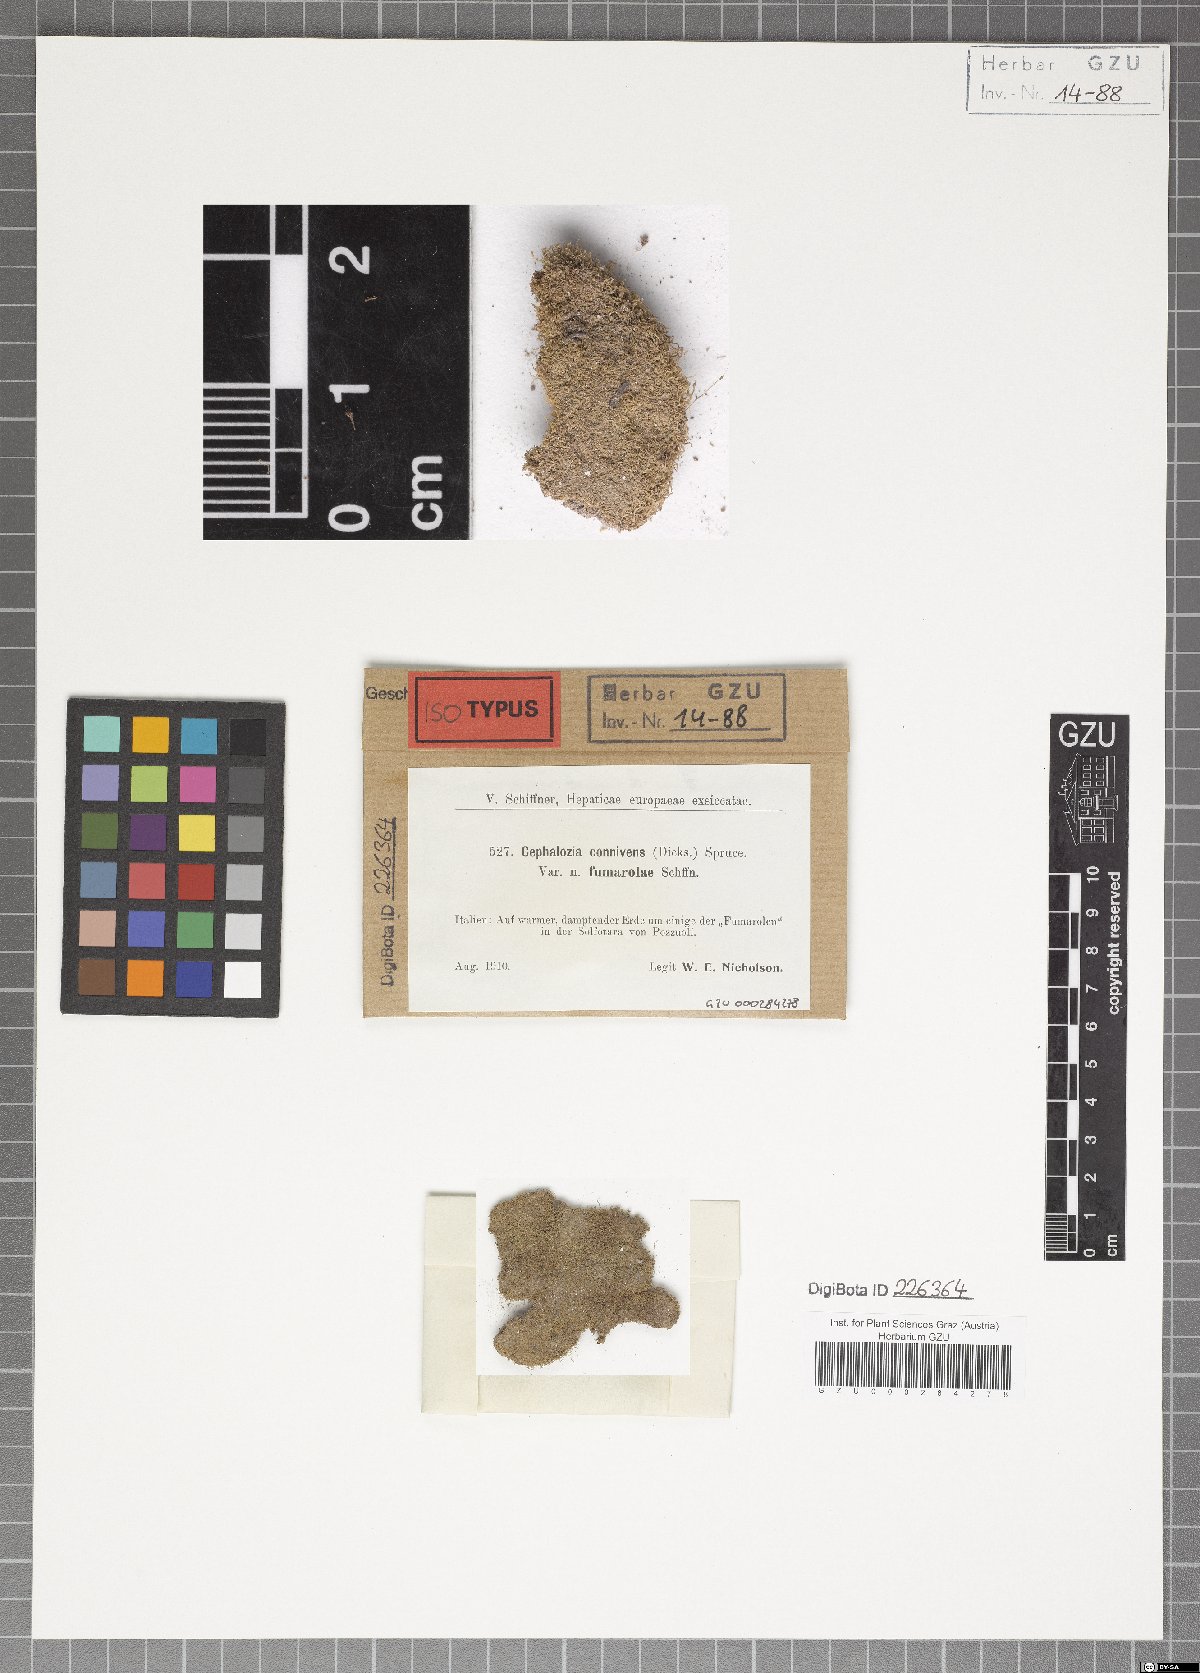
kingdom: Plantae
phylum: Marchantiophyta
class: Jungermanniopsida
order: Jungermanniales
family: Cephaloziaceae
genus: Fuscocephaloziopsis
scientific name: Fuscocephaloziopsis connivens
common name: Forcipated pincerwort
